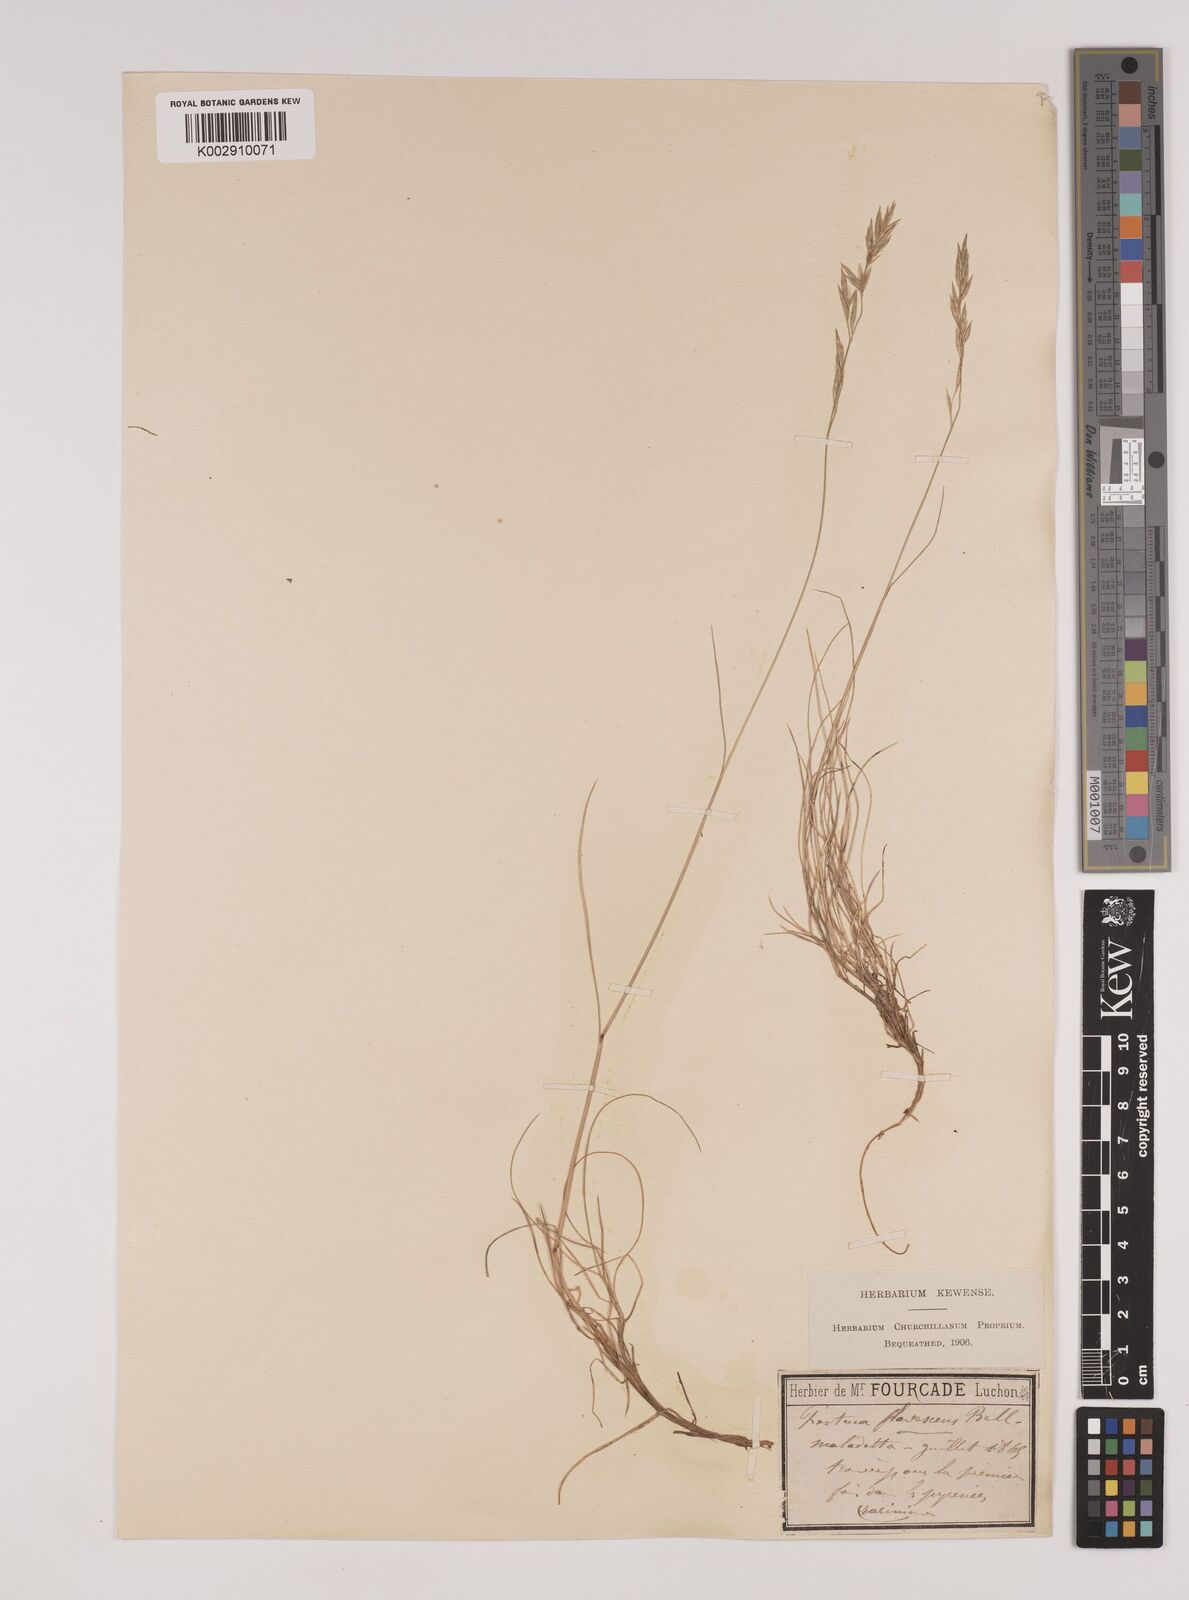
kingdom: Plantae
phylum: Tracheophyta
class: Liliopsida
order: Poales
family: Poaceae
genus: Festuca
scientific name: Festuca gautieri
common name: Spiky fescue
